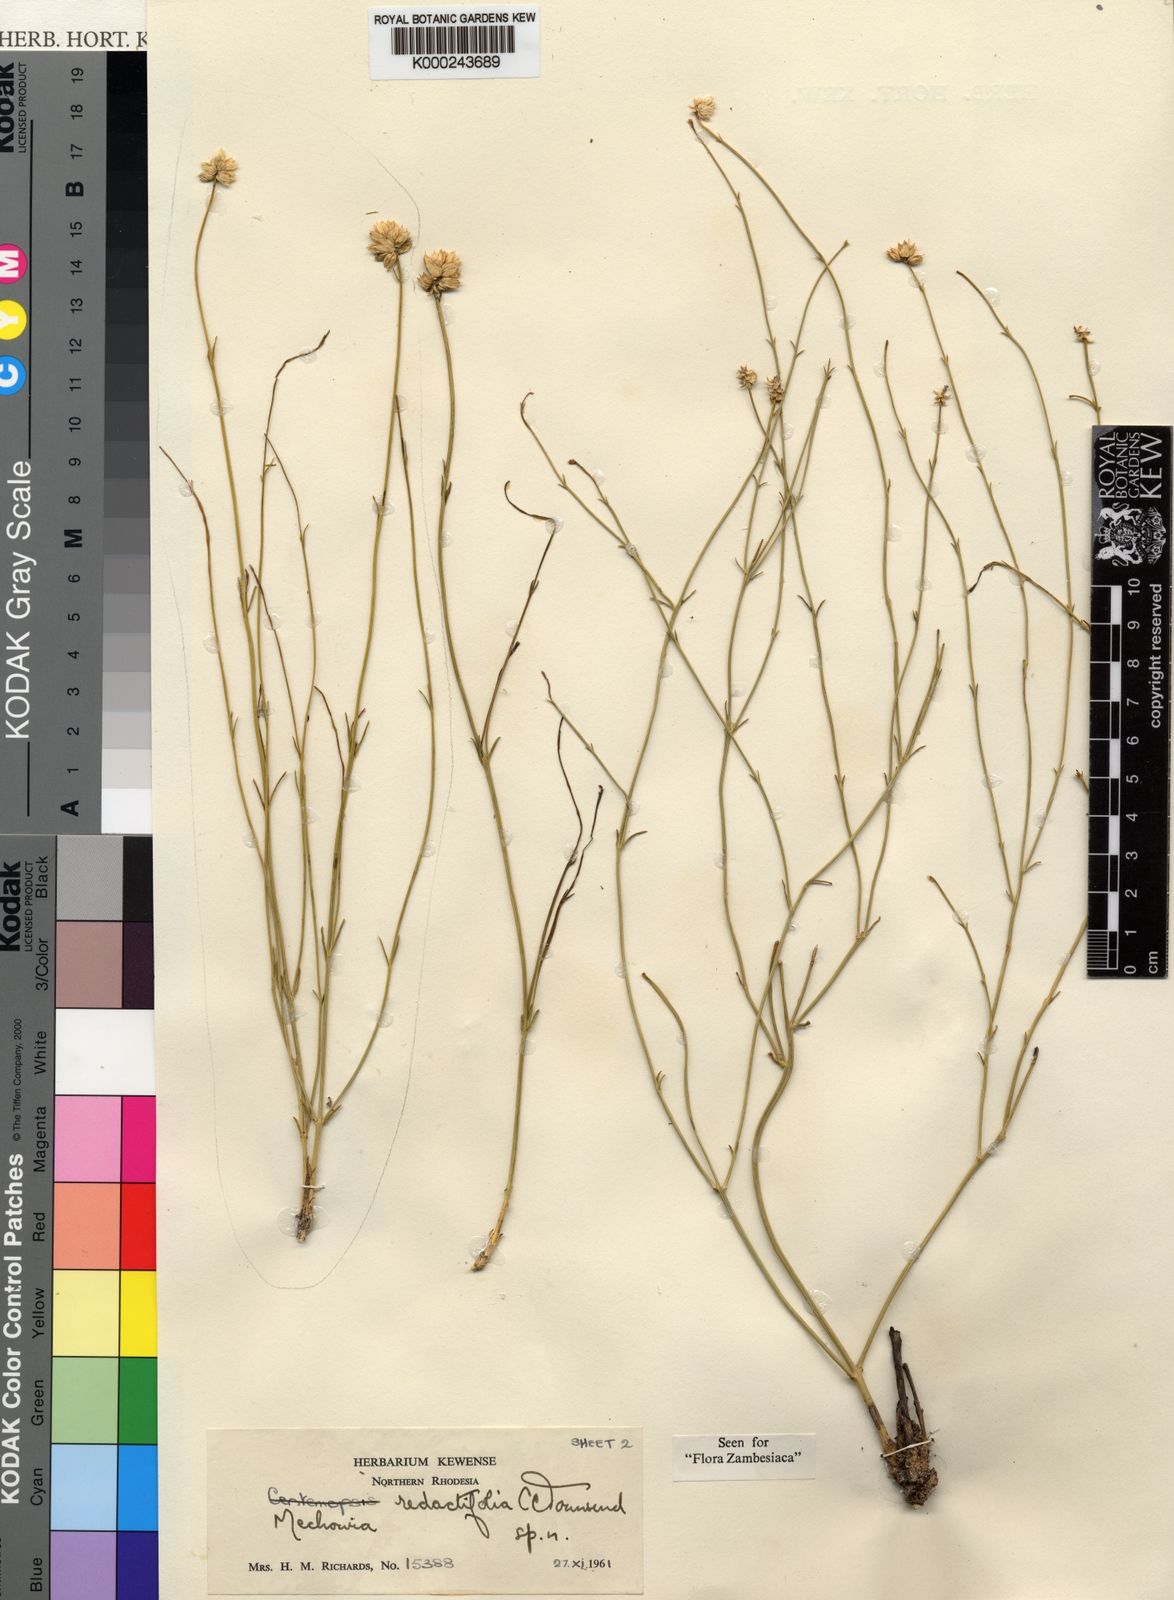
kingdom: Plantae
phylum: Tracheophyta
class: Magnoliopsida
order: Caryophyllales
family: Amaranthaceae
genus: Mechowia
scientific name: Mechowia redactifolia
